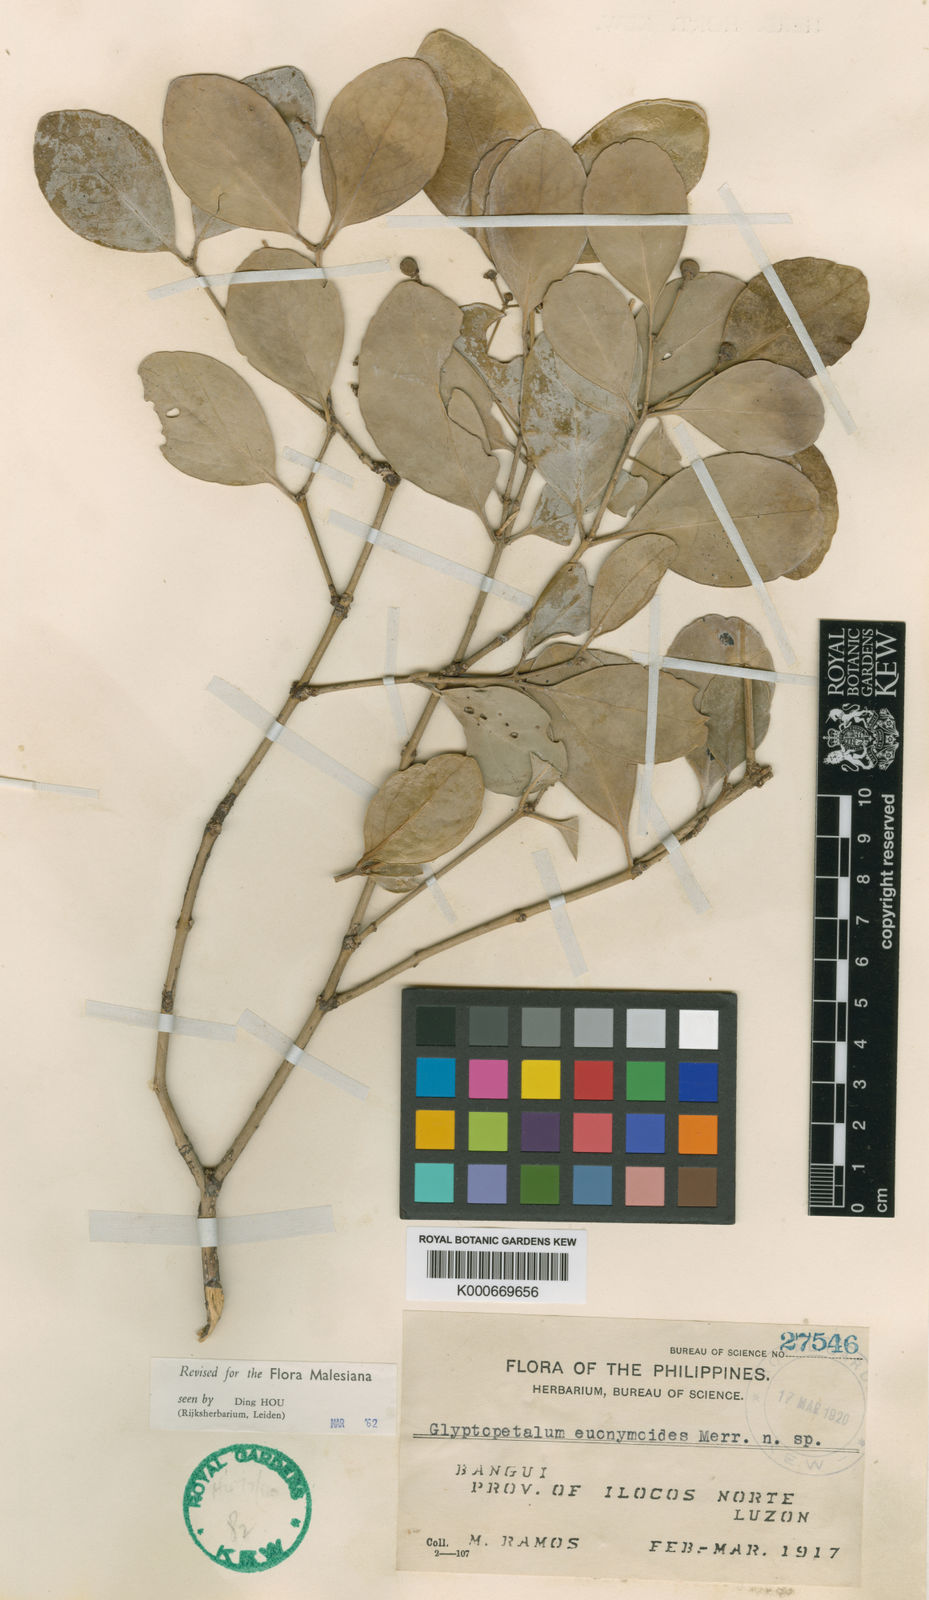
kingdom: Plantae
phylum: Tracheophyta
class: Magnoliopsida
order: Celastrales
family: Celastraceae
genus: Euonymus
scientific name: Euonymus euonymoides
